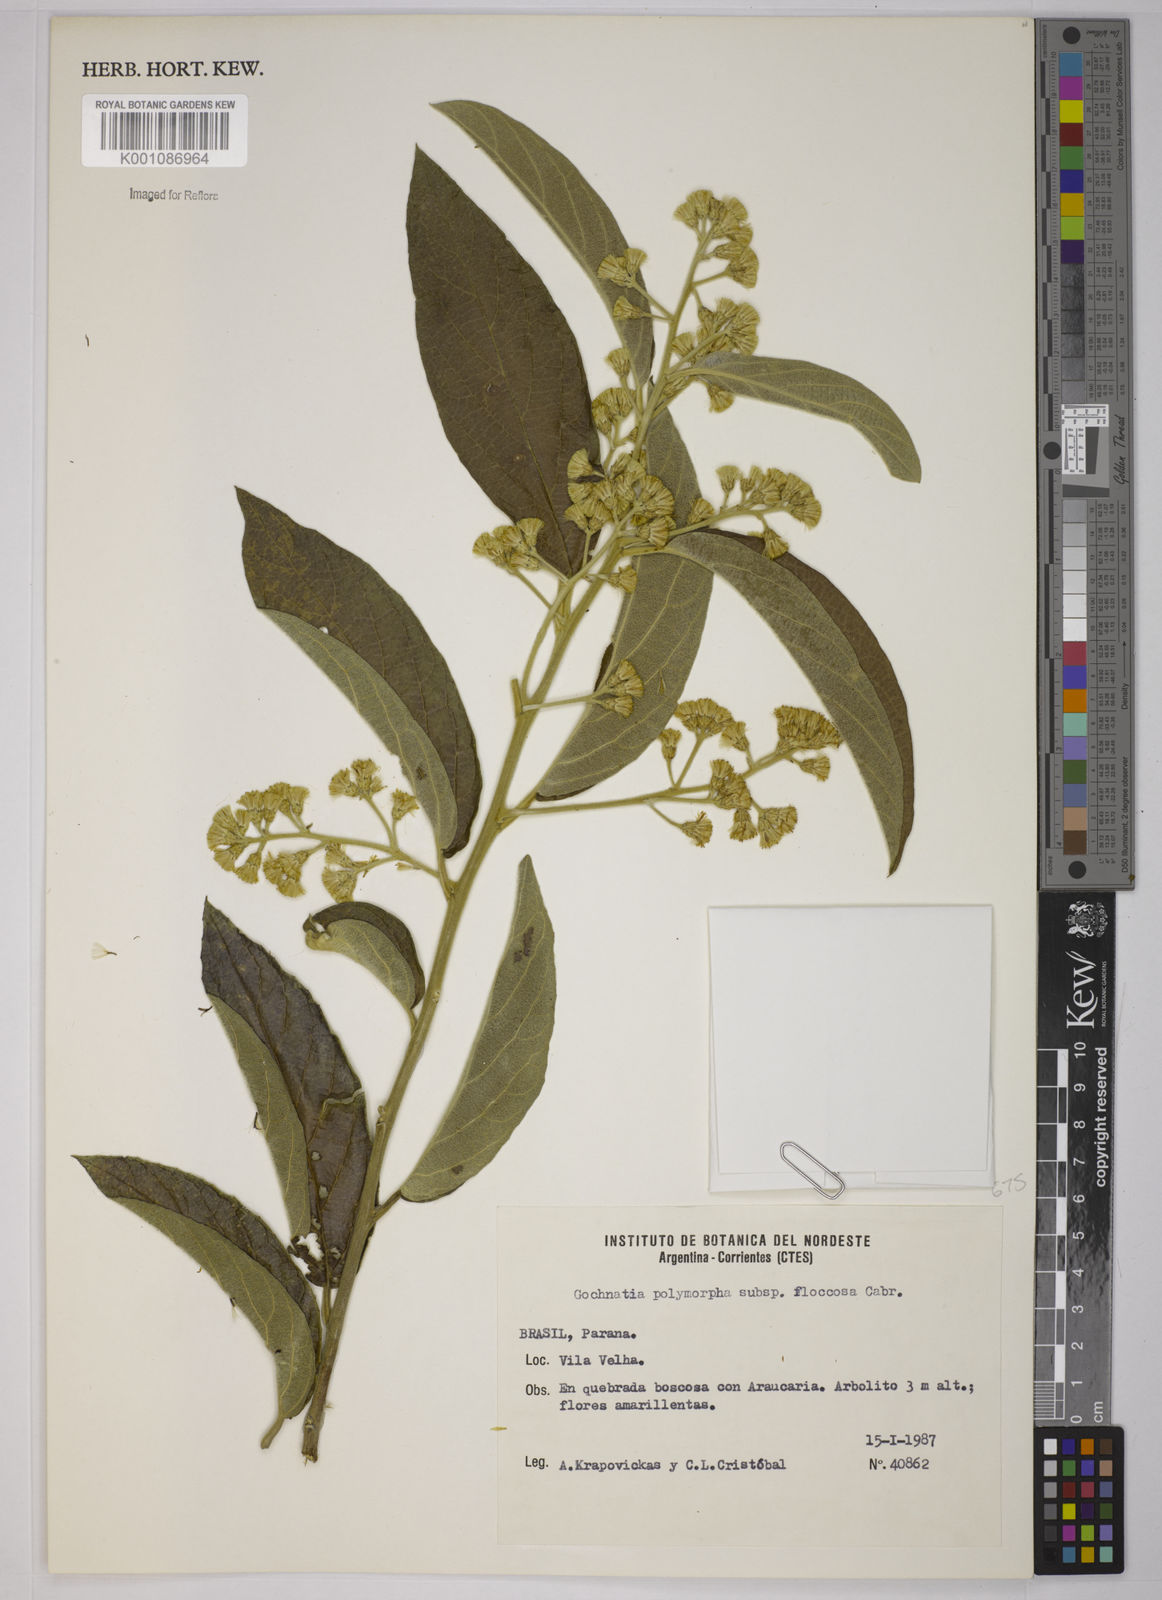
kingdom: Plantae
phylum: Tracheophyta
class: Magnoliopsida
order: Asterales
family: Asteraceae
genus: Moquiniastrum
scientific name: Moquiniastrum polymorphum
